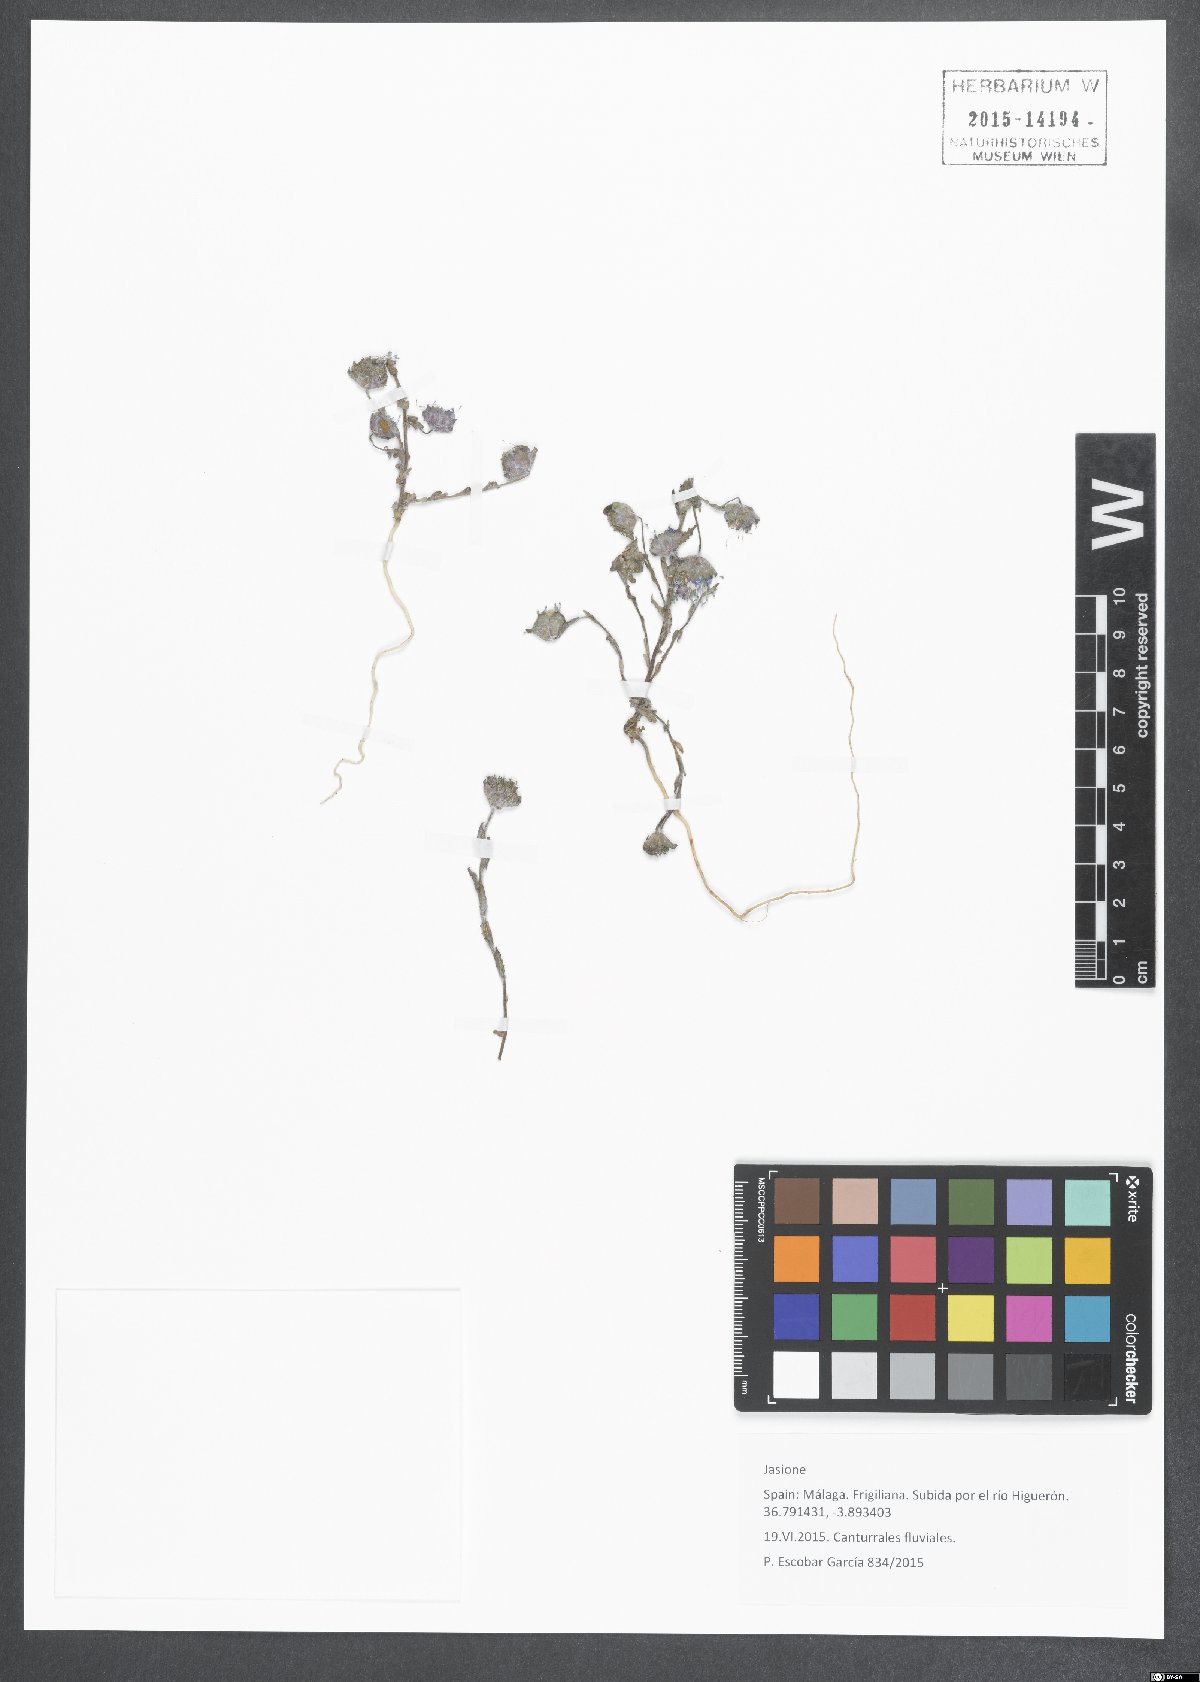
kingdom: Plantae
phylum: Tracheophyta
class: Magnoliopsida
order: Asterales
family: Campanulaceae
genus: Jasione
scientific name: Jasione
